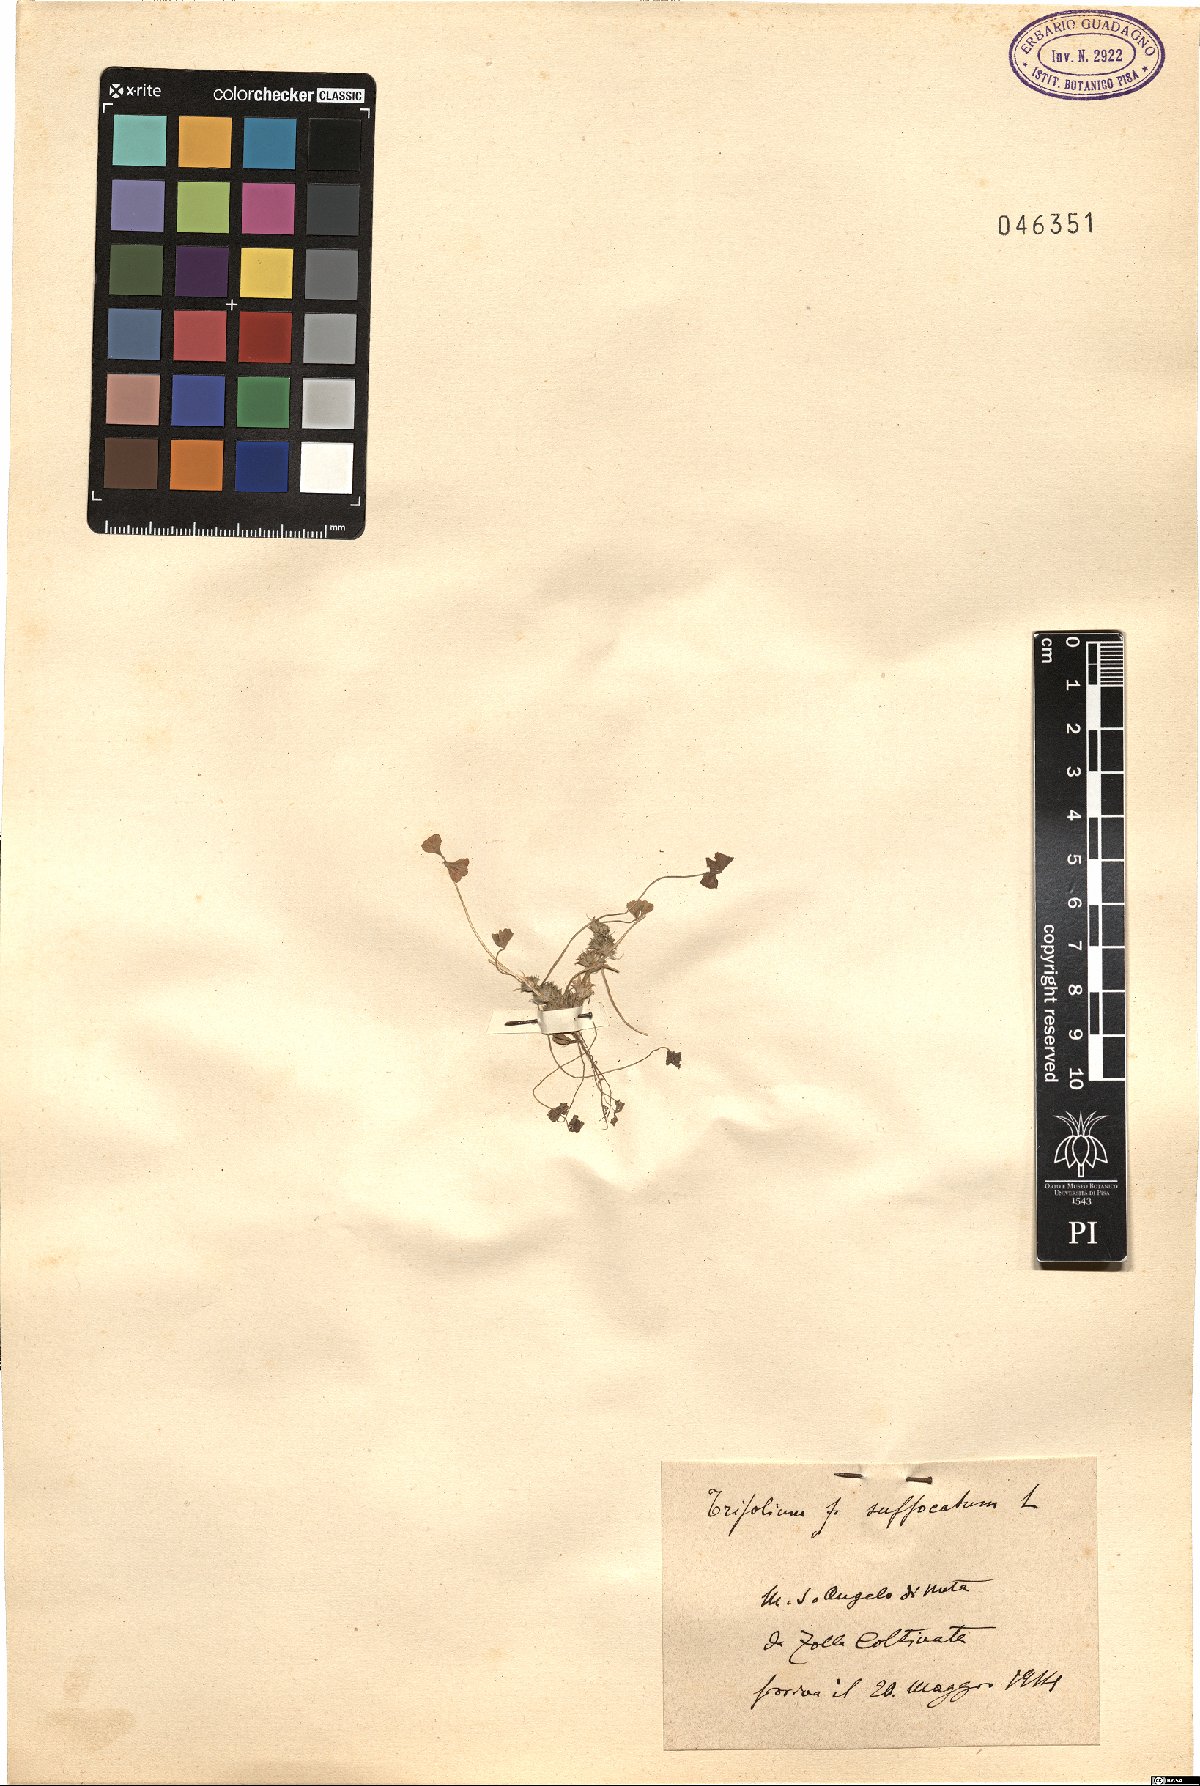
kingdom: Plantae
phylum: Tracheophyta
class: Magnoliopsida
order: Fabales
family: Fabaceae
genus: Trifolium
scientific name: Trifolium suffocatum
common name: Suffocated clover
